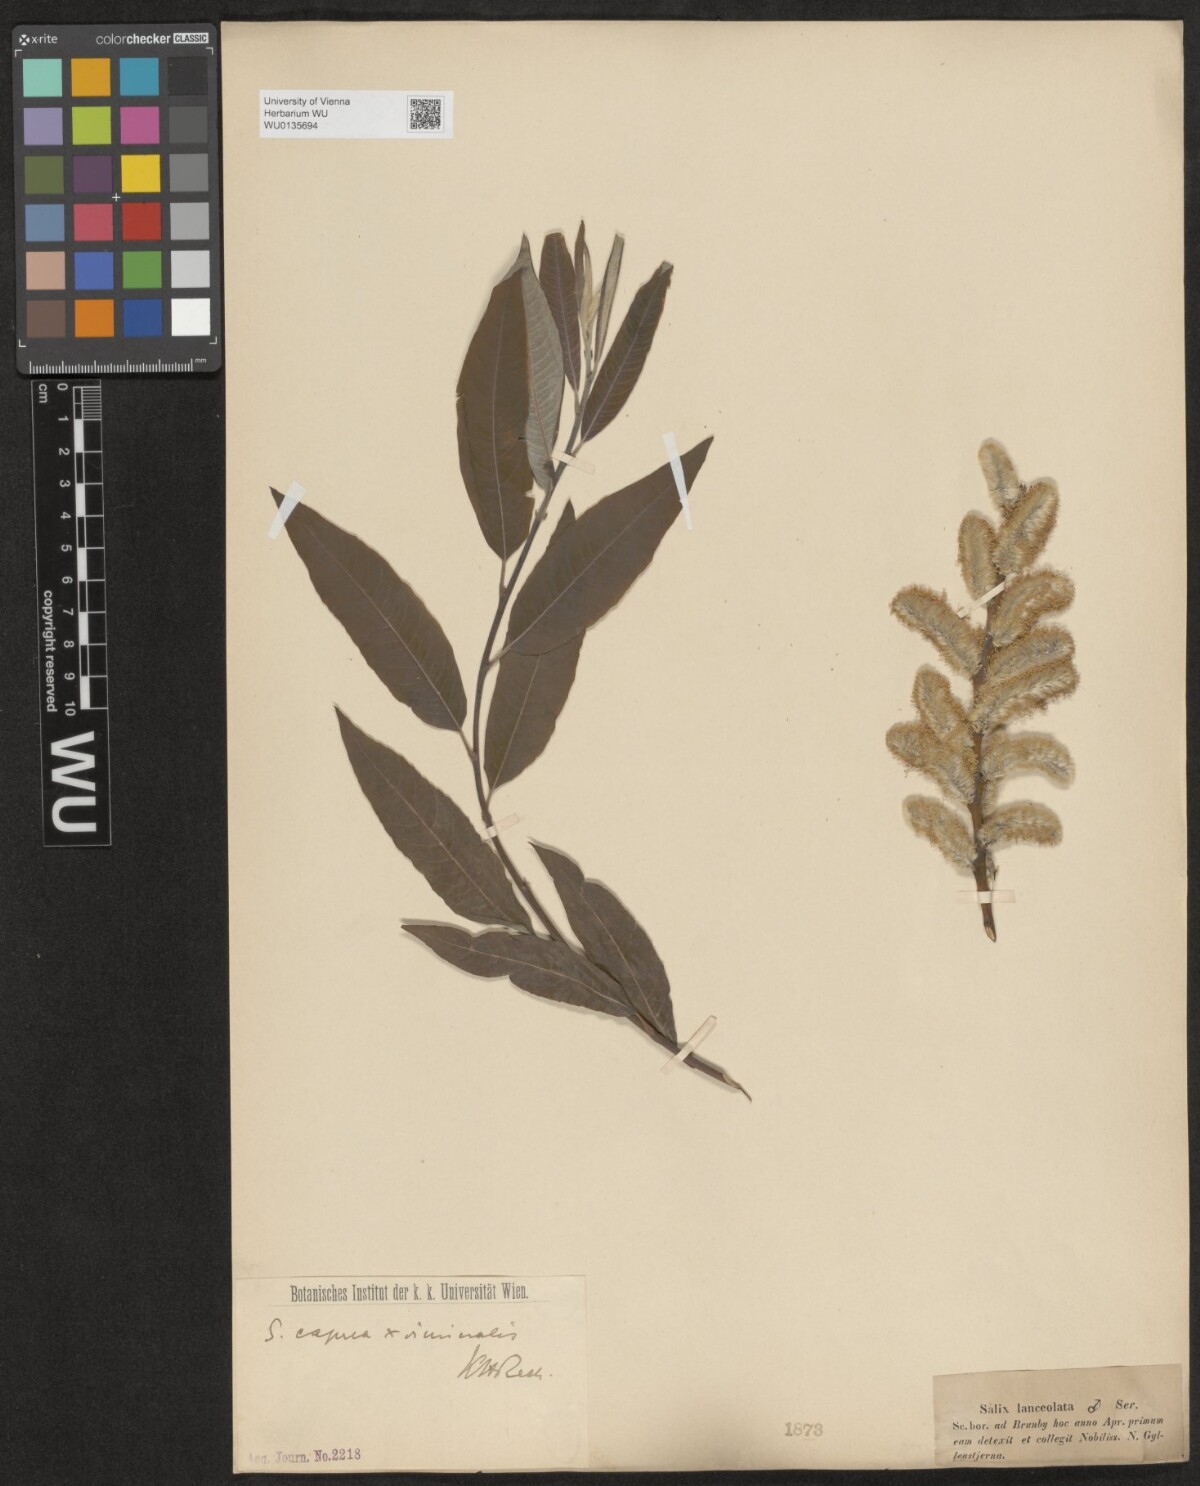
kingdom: Plantae
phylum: Tracheophyta
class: Magnoliopsida
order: Malpighiales
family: Salicaceae
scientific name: Salicaceae
